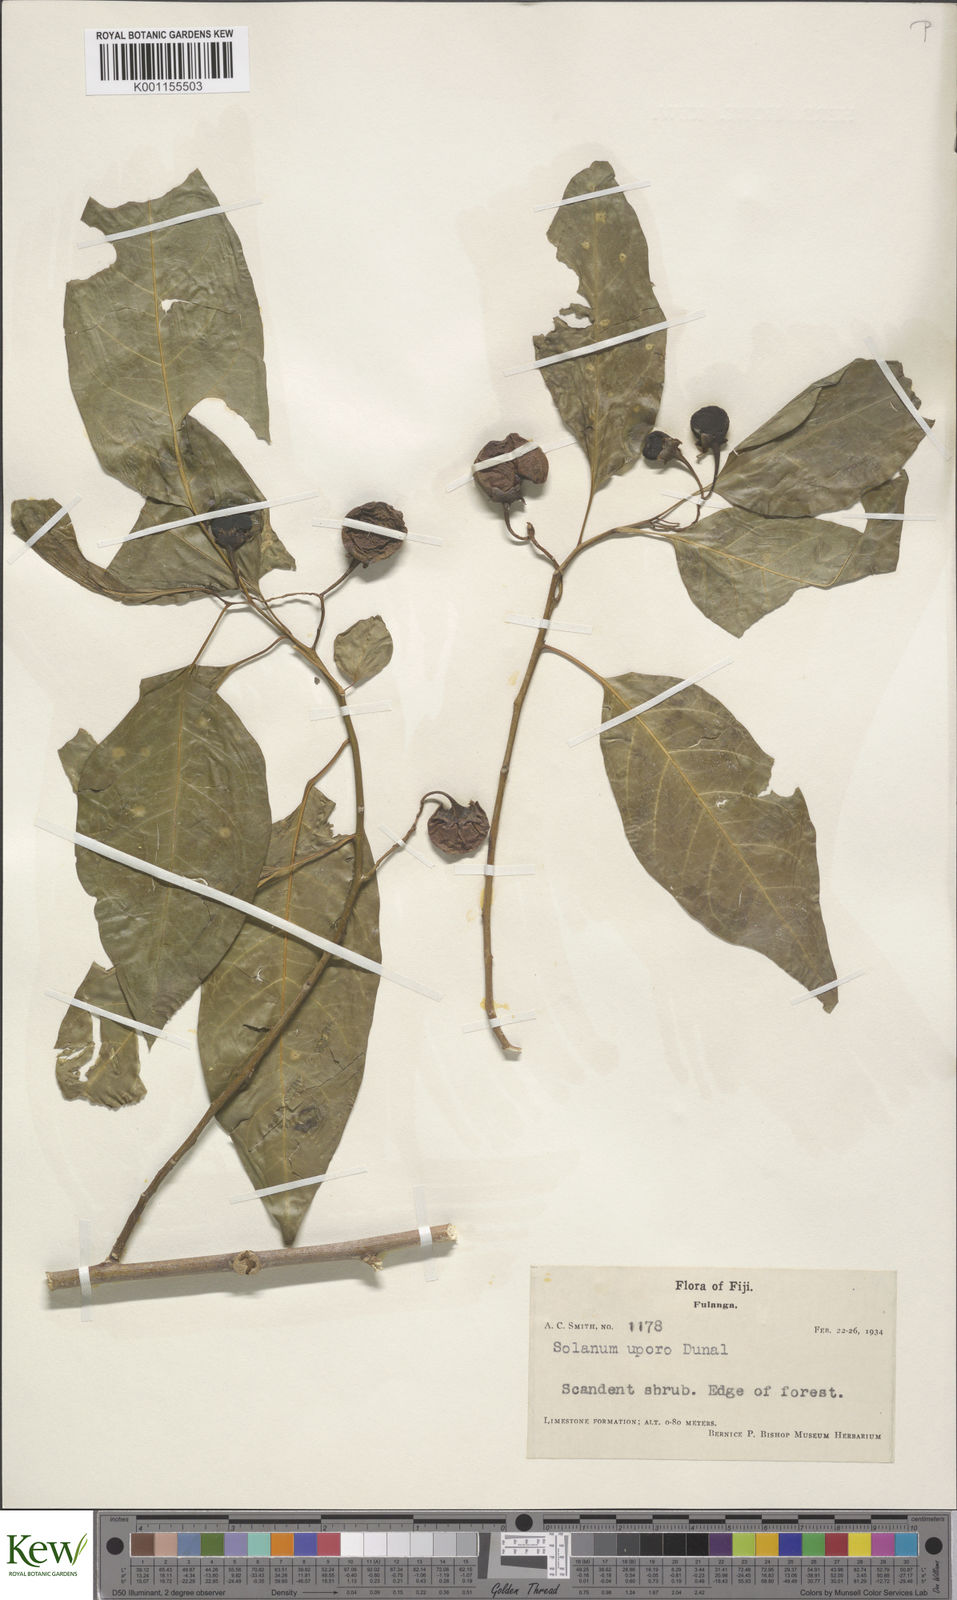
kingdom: Plantae
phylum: Tracheophyta
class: Magnoliopsida
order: Solanales
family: Solanaceae
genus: Solanum
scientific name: Solanum
